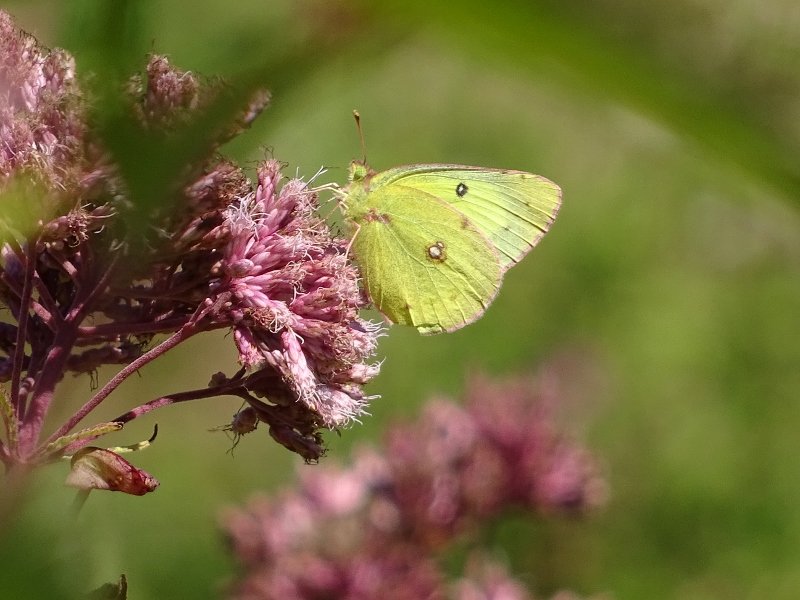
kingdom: Animalia
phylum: Arthropoda
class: Insecta
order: Lepidoptera
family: Pieridae
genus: Colias
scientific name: Colias philodice
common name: Clouded Sulphur
